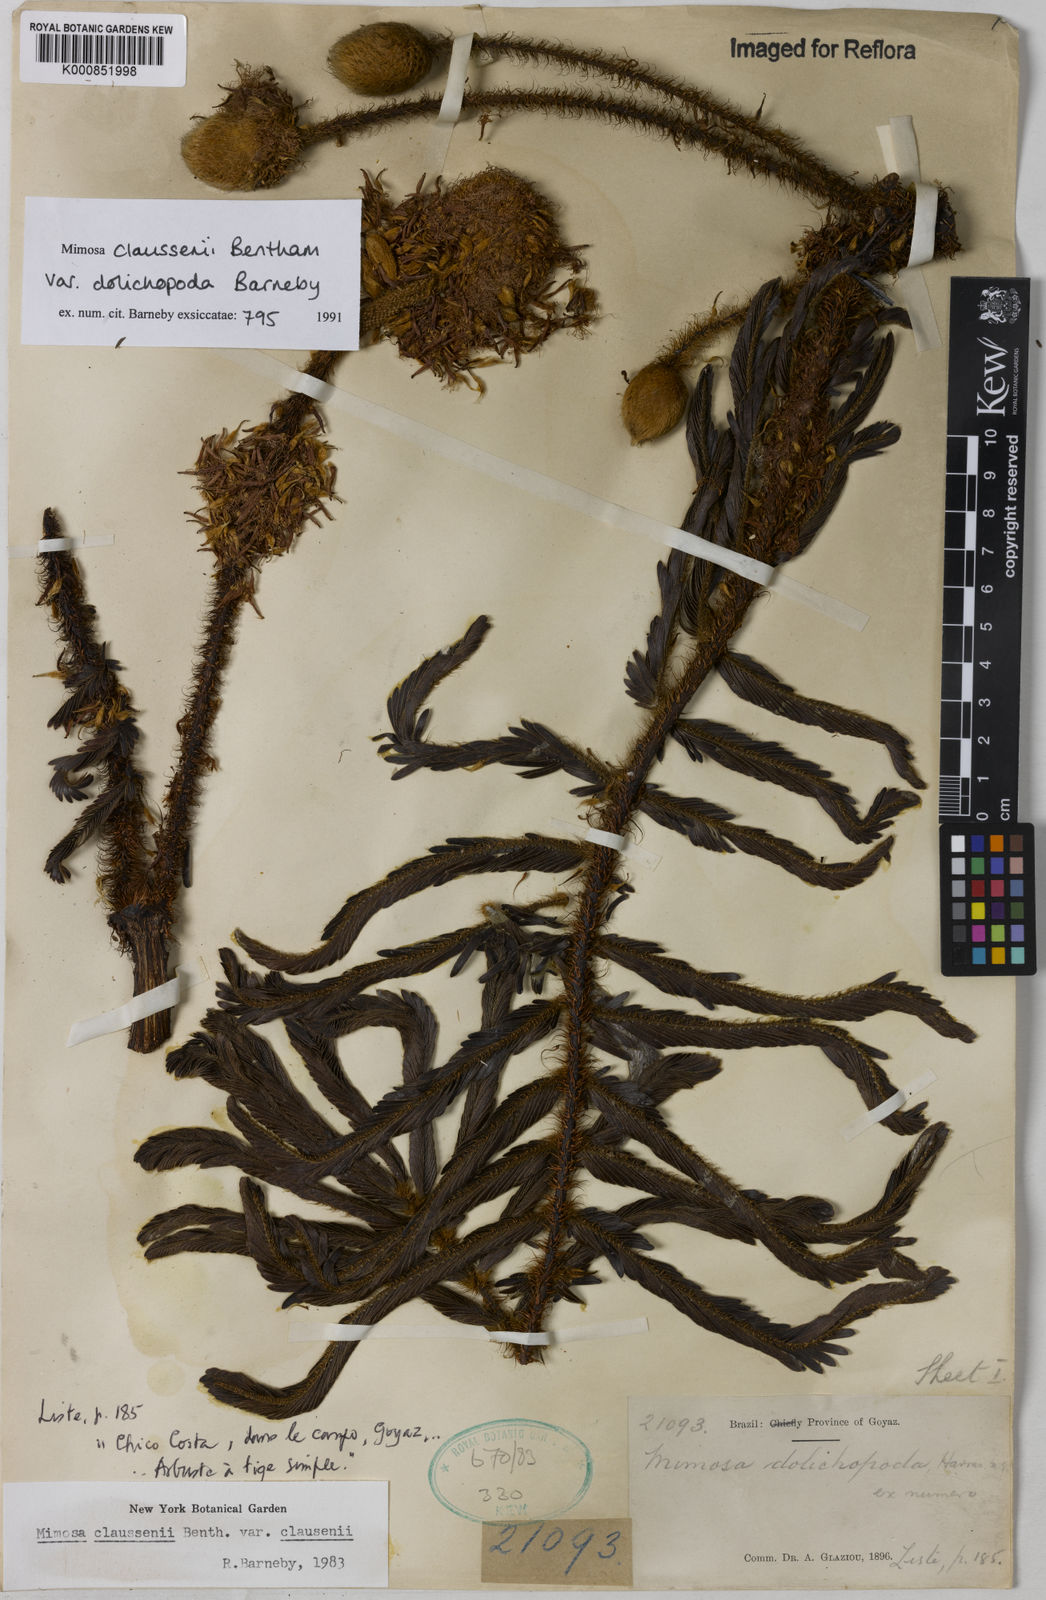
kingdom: Plantae
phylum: Tracheophyta
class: Magnoliopsida
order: Fabales
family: Fabaceae
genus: Mimosa
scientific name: Mimosa claussenii
